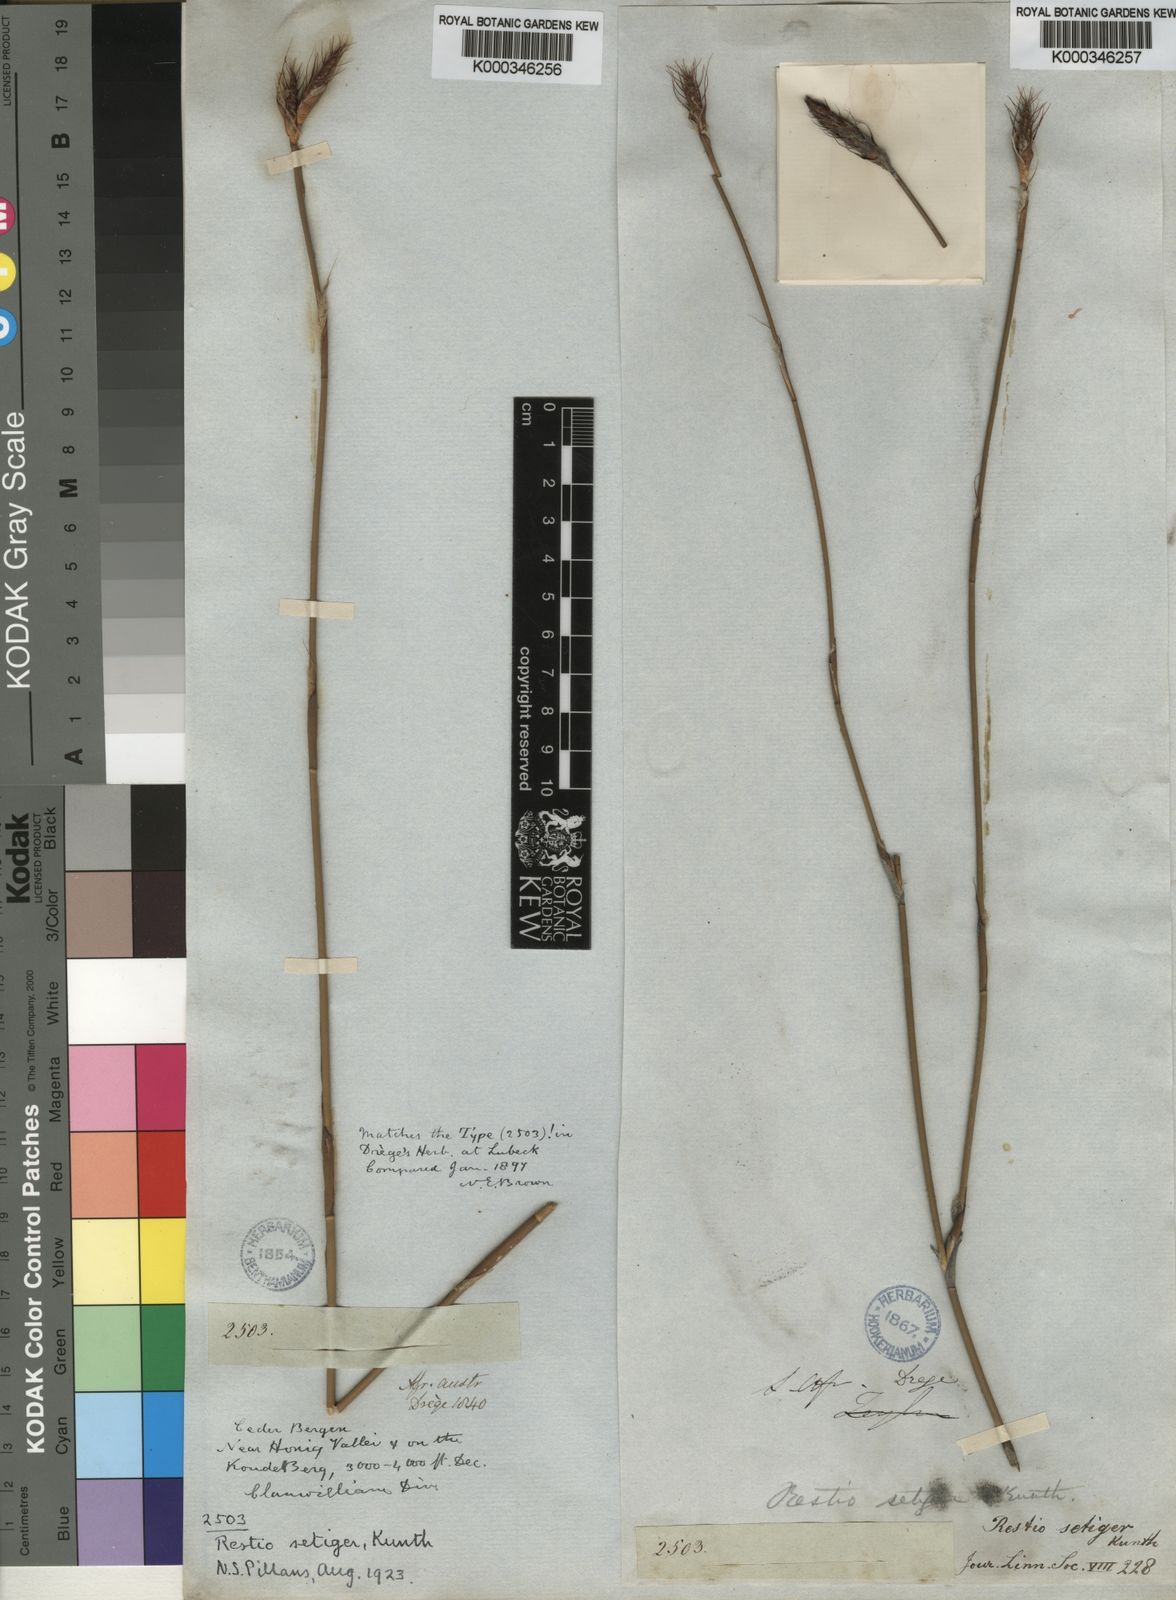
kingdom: Plantae
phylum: Tracheophyta
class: Liliopsida
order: Poales
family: Restionaceae
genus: Restio
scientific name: Restio setiger
